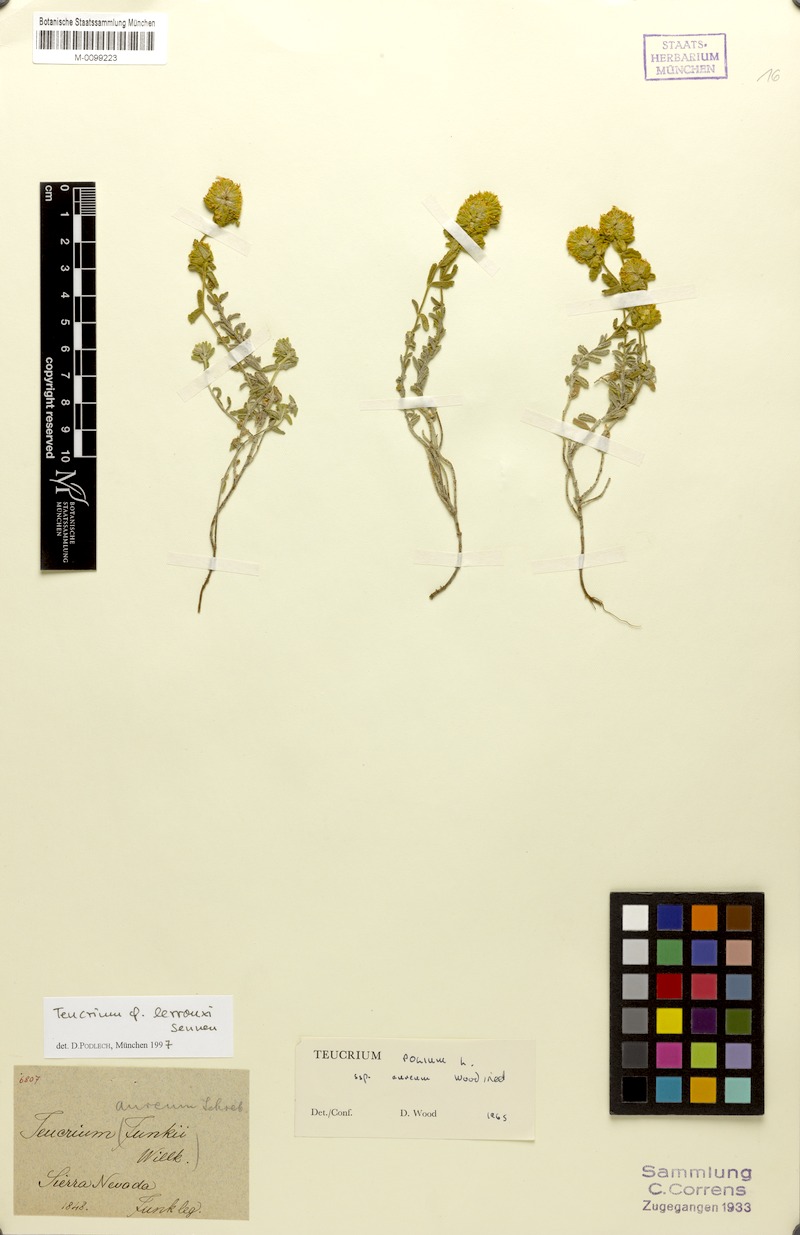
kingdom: Plantae
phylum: Tracheophyta
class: Magnoliopsida
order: Lamiales
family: Lamiaceae
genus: Teucrium
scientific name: Teucrium aureum
